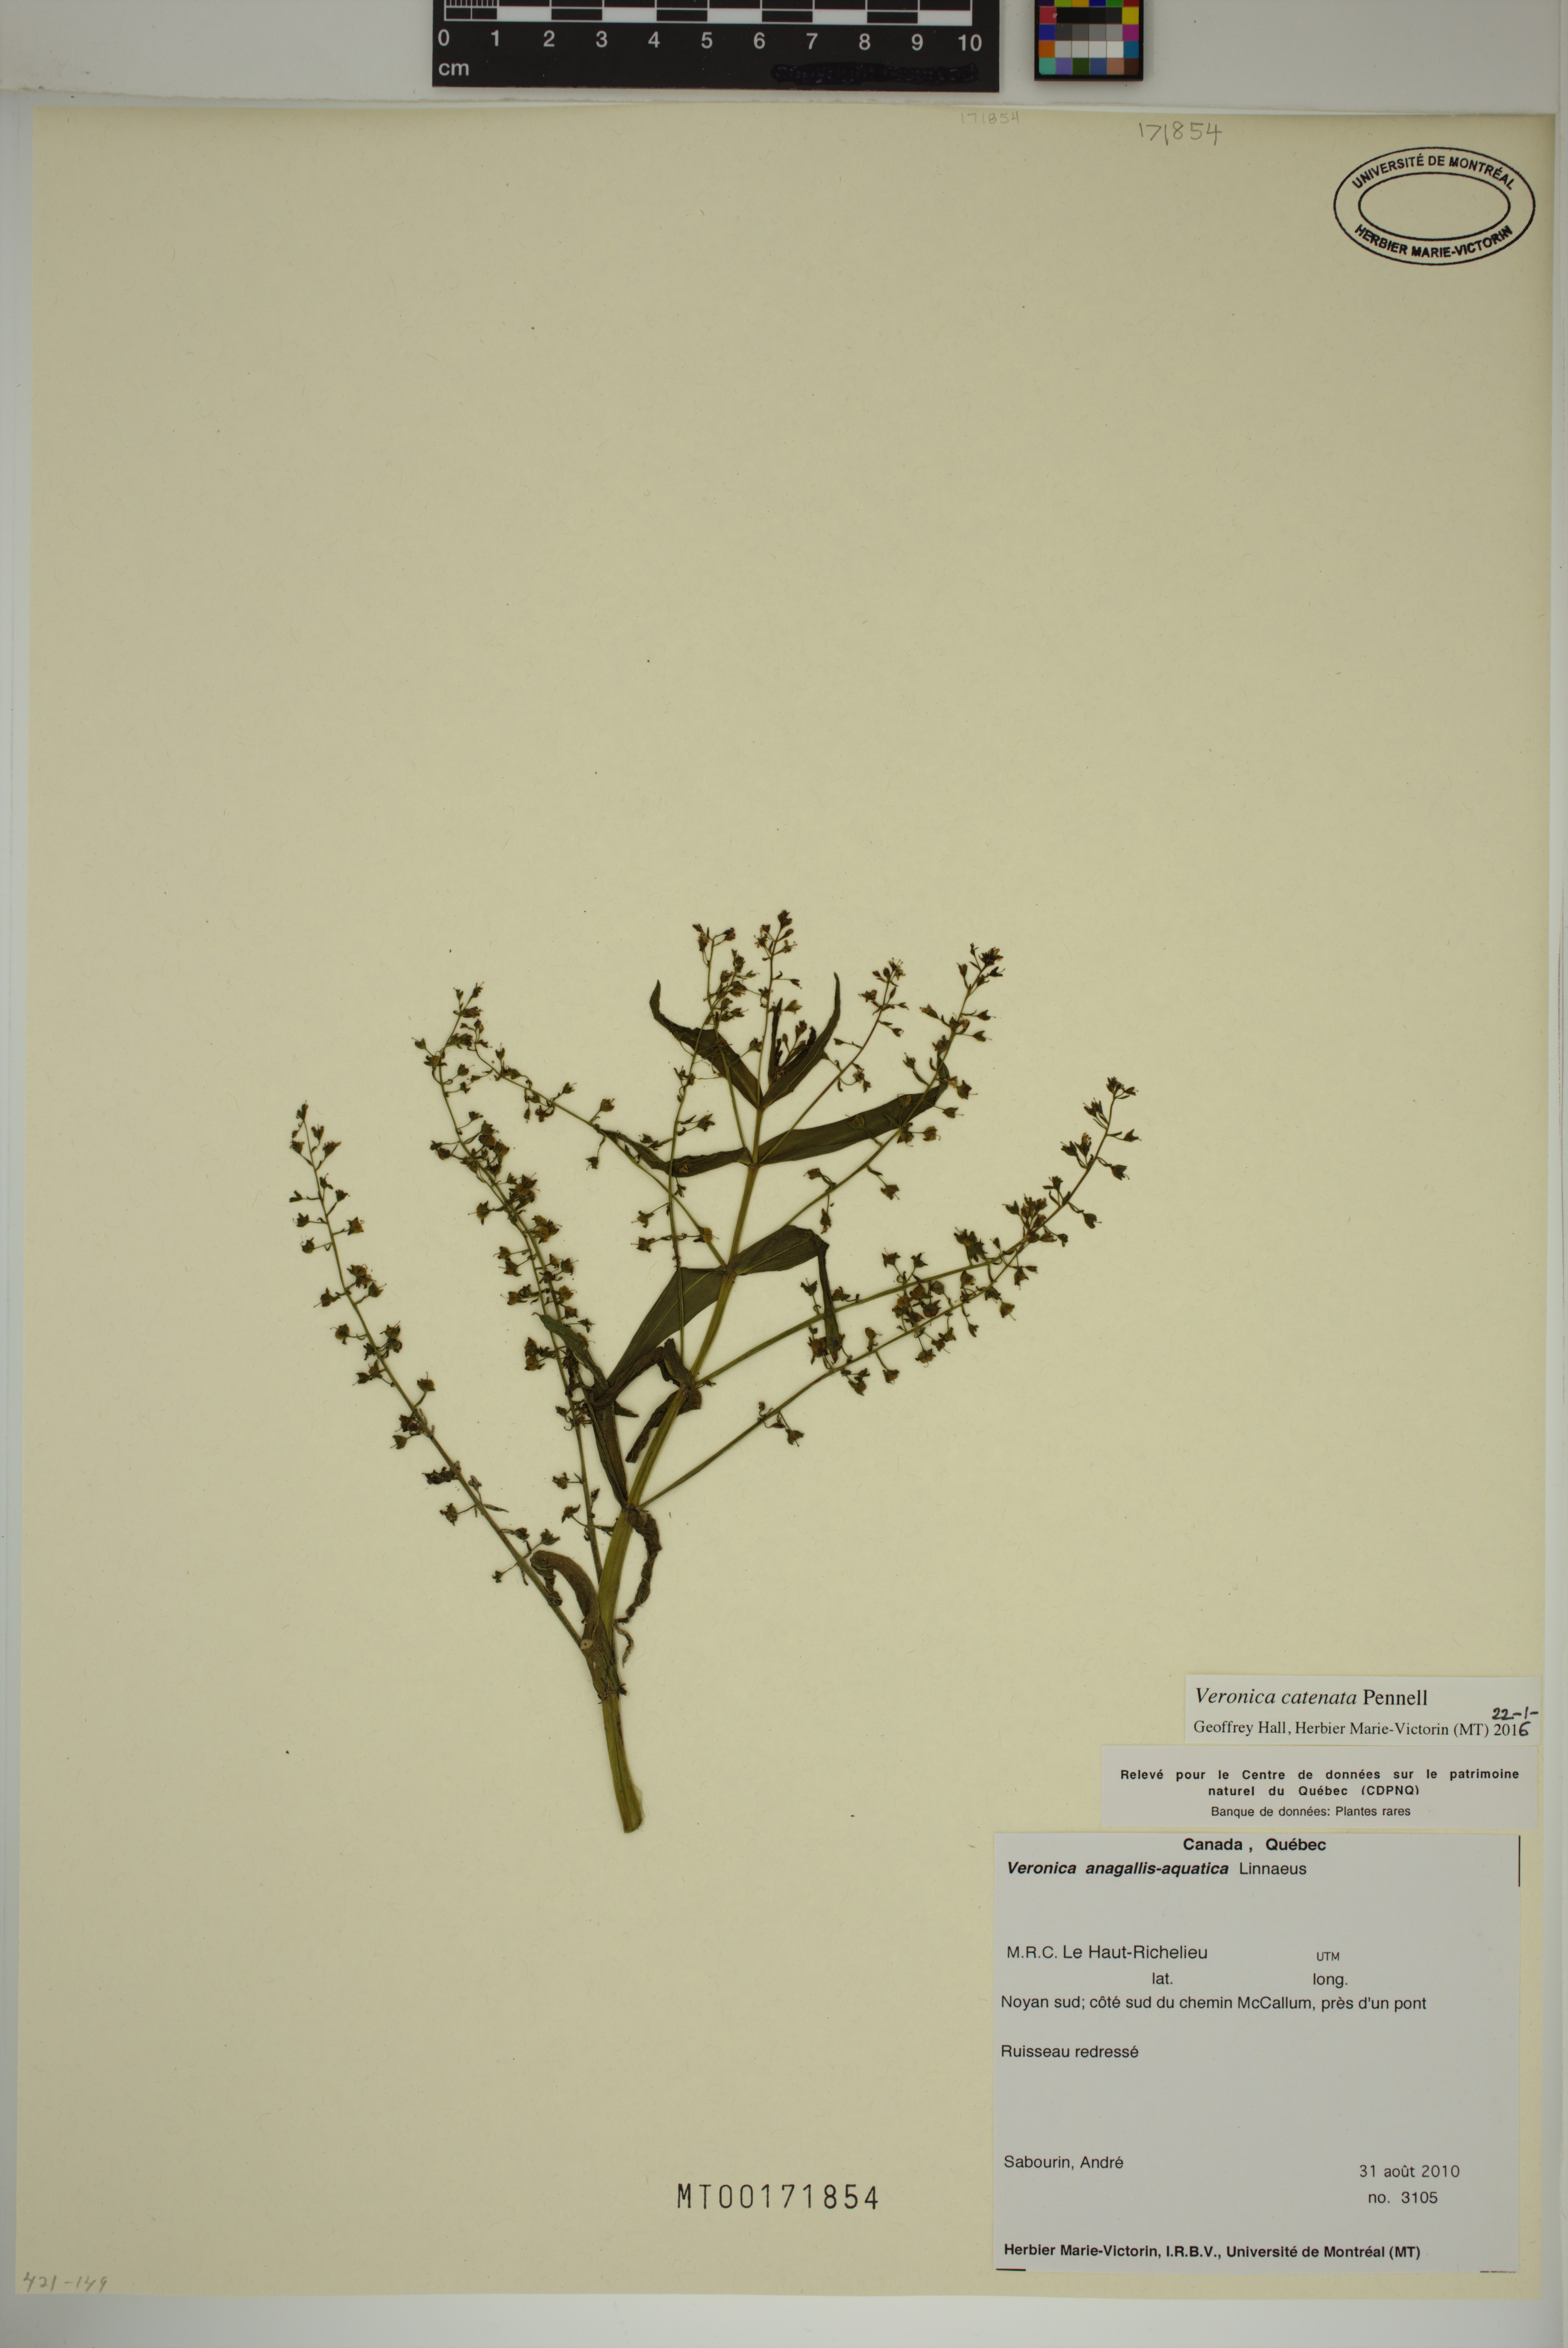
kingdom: Plantae
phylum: Tracheophyta
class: Magnoliopsida
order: Lamiales
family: Plantaginaceae
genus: Veronica
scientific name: Veronica catenata
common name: Pink water-speedwell
